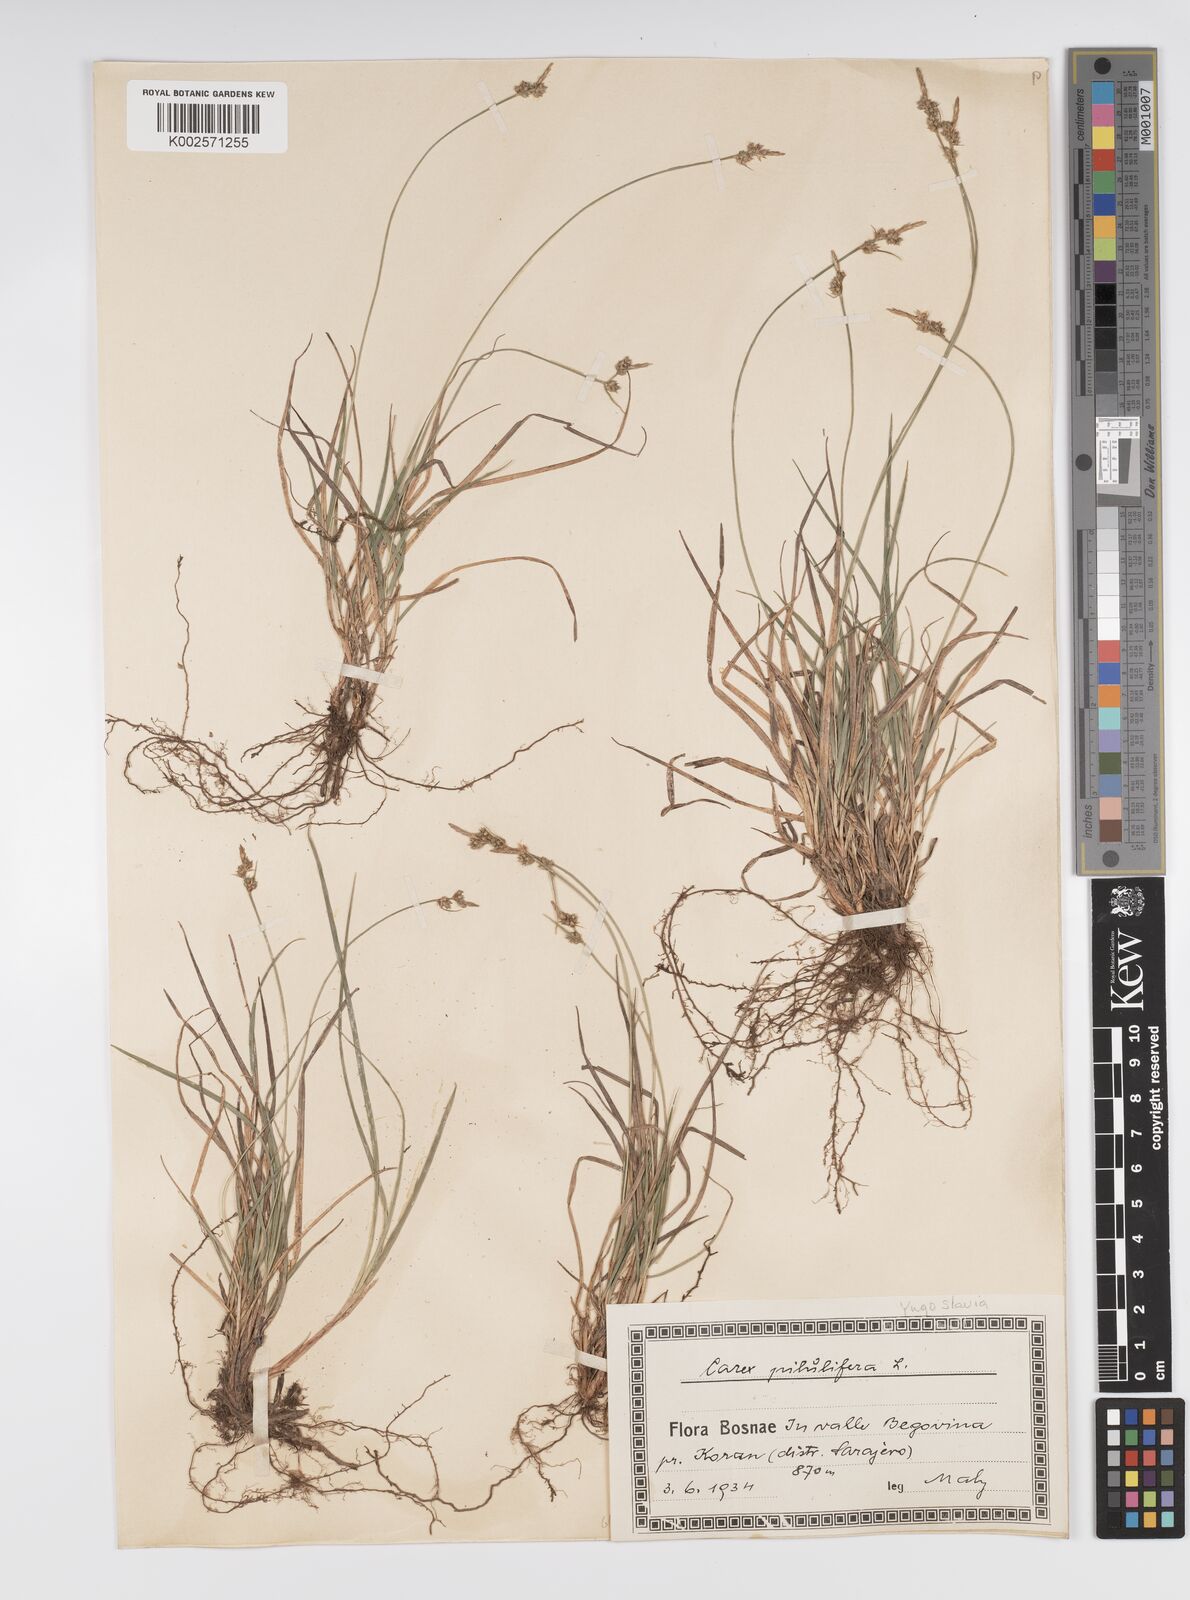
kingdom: Plantae
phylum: Tracheophyta
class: Liliopsida
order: Poales
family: Cyperaceae
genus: Carex
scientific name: Carex pilulifera
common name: Pill sedge
